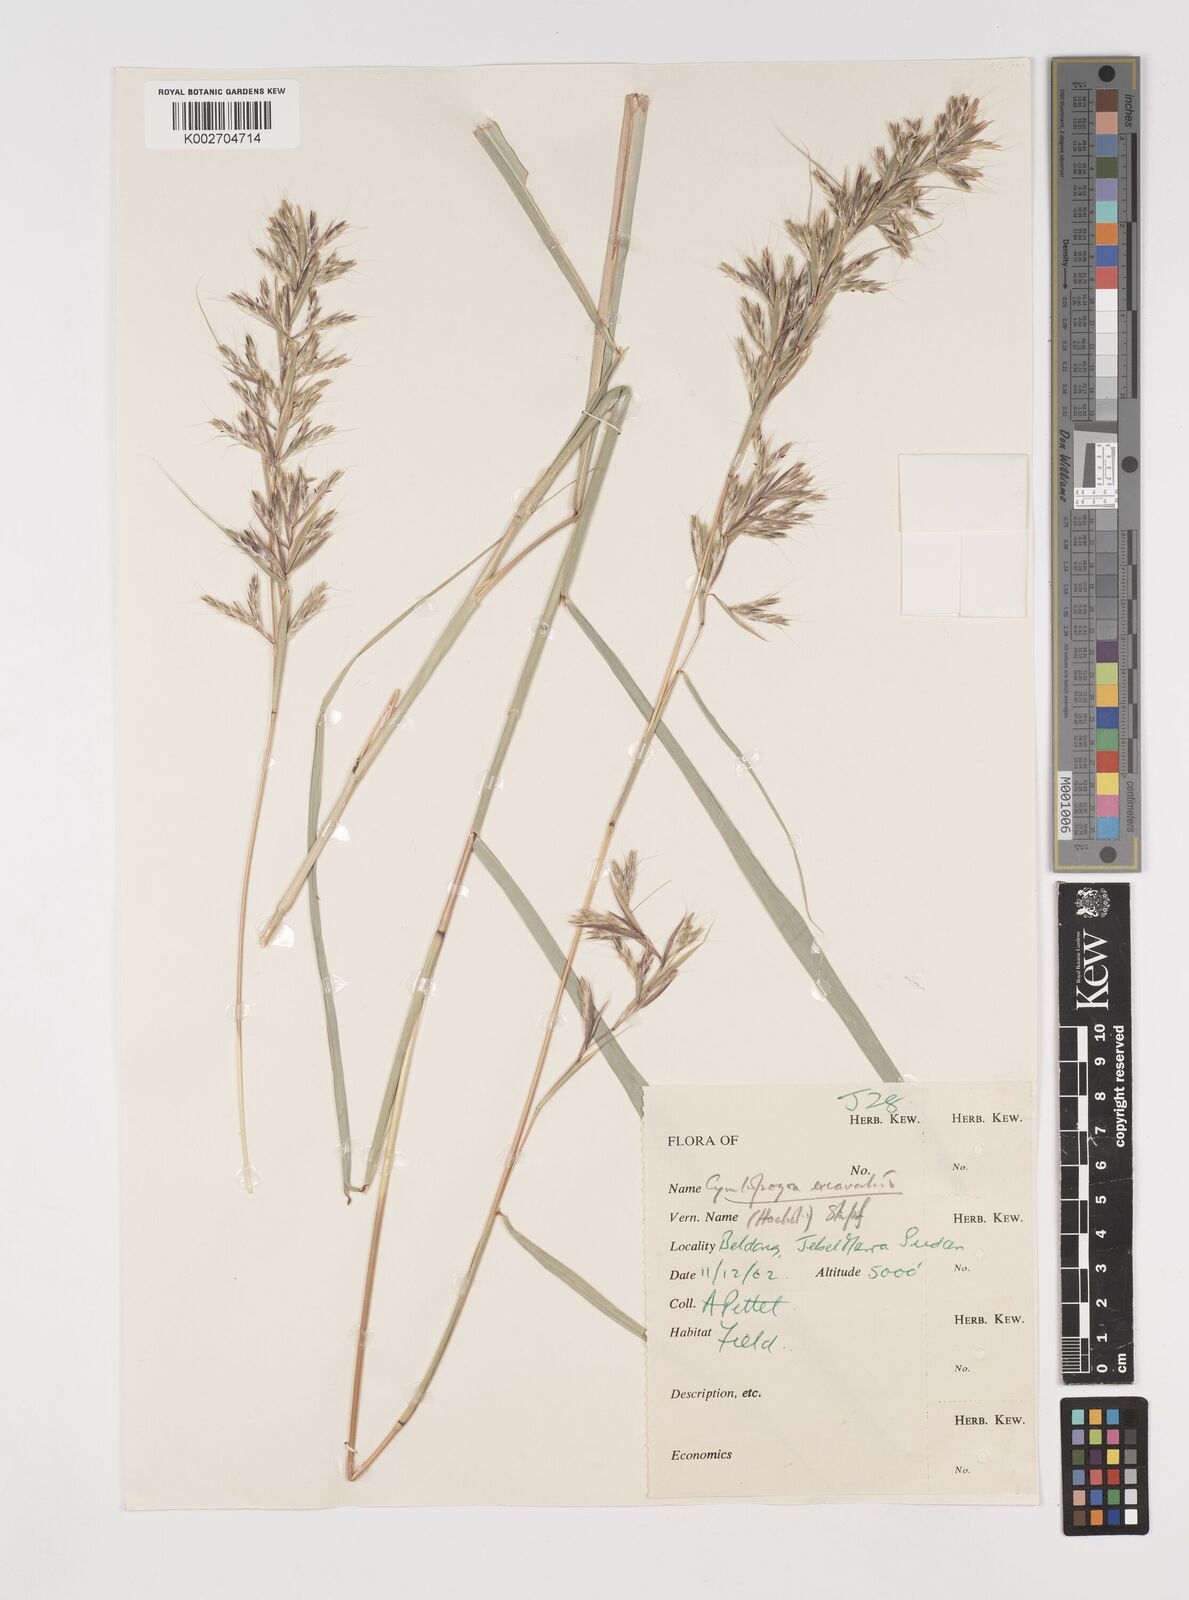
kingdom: Plantae
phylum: Tracheophyta
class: Liliopsida
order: Poales
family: Poaceae
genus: Cymbopogon
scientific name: Cymbopogon
